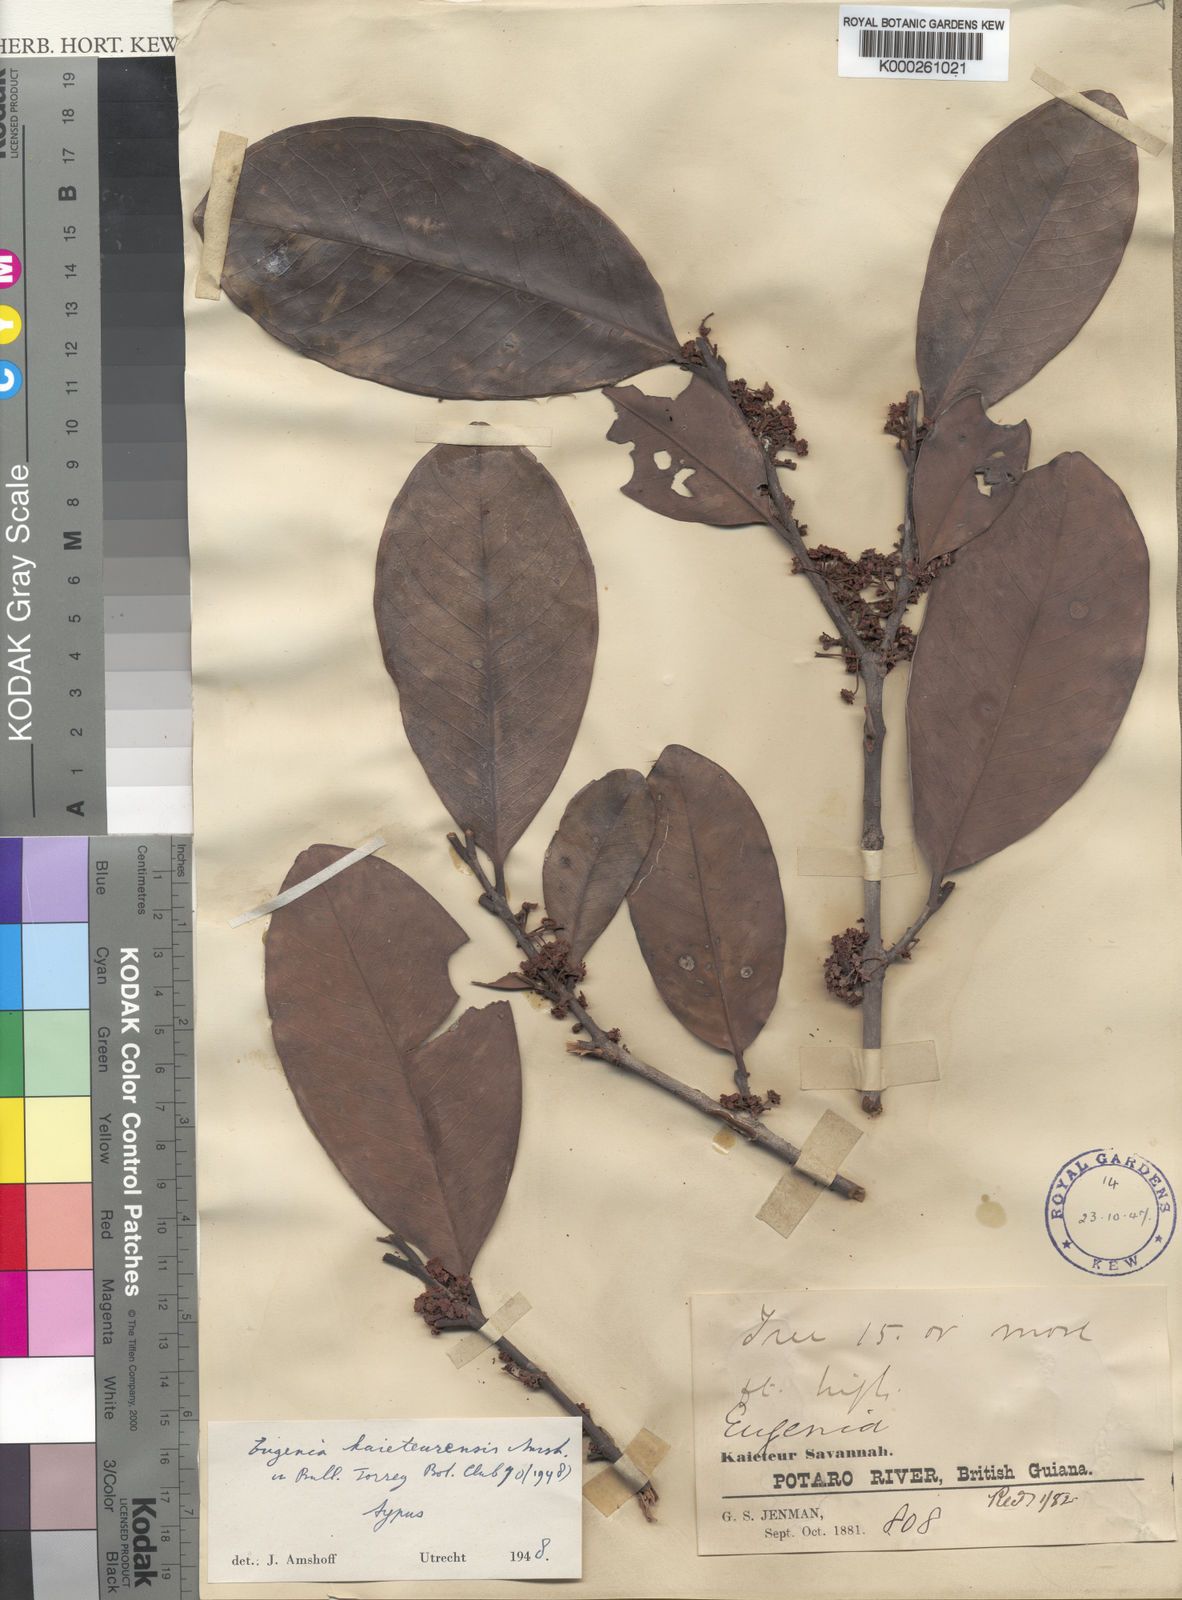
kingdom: Plantae
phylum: Tracheophyta
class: Magnoliopsida
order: Myrtales
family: Myrtaceae
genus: Eugenia
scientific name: Eugenia
